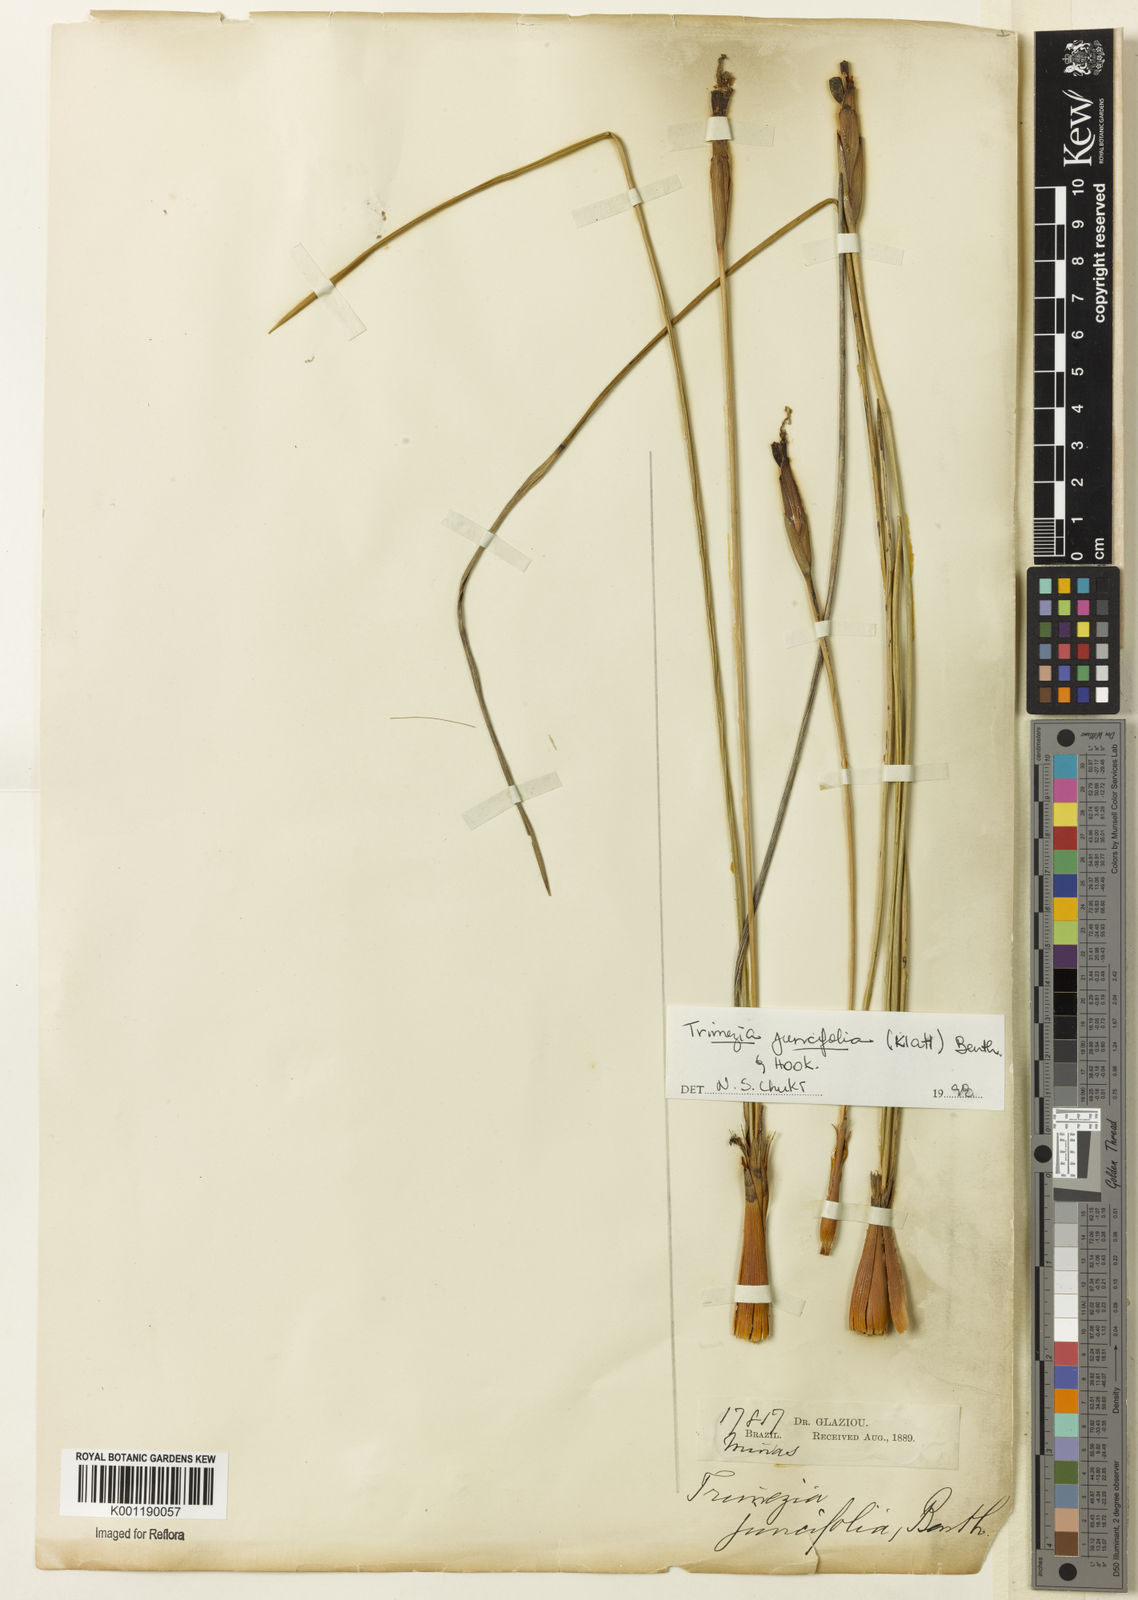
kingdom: Plantae
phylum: Tracheophyta
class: Liliopsida
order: Asparagales
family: Iridaceae
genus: Trimezia
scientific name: Trimezia juncifolia
